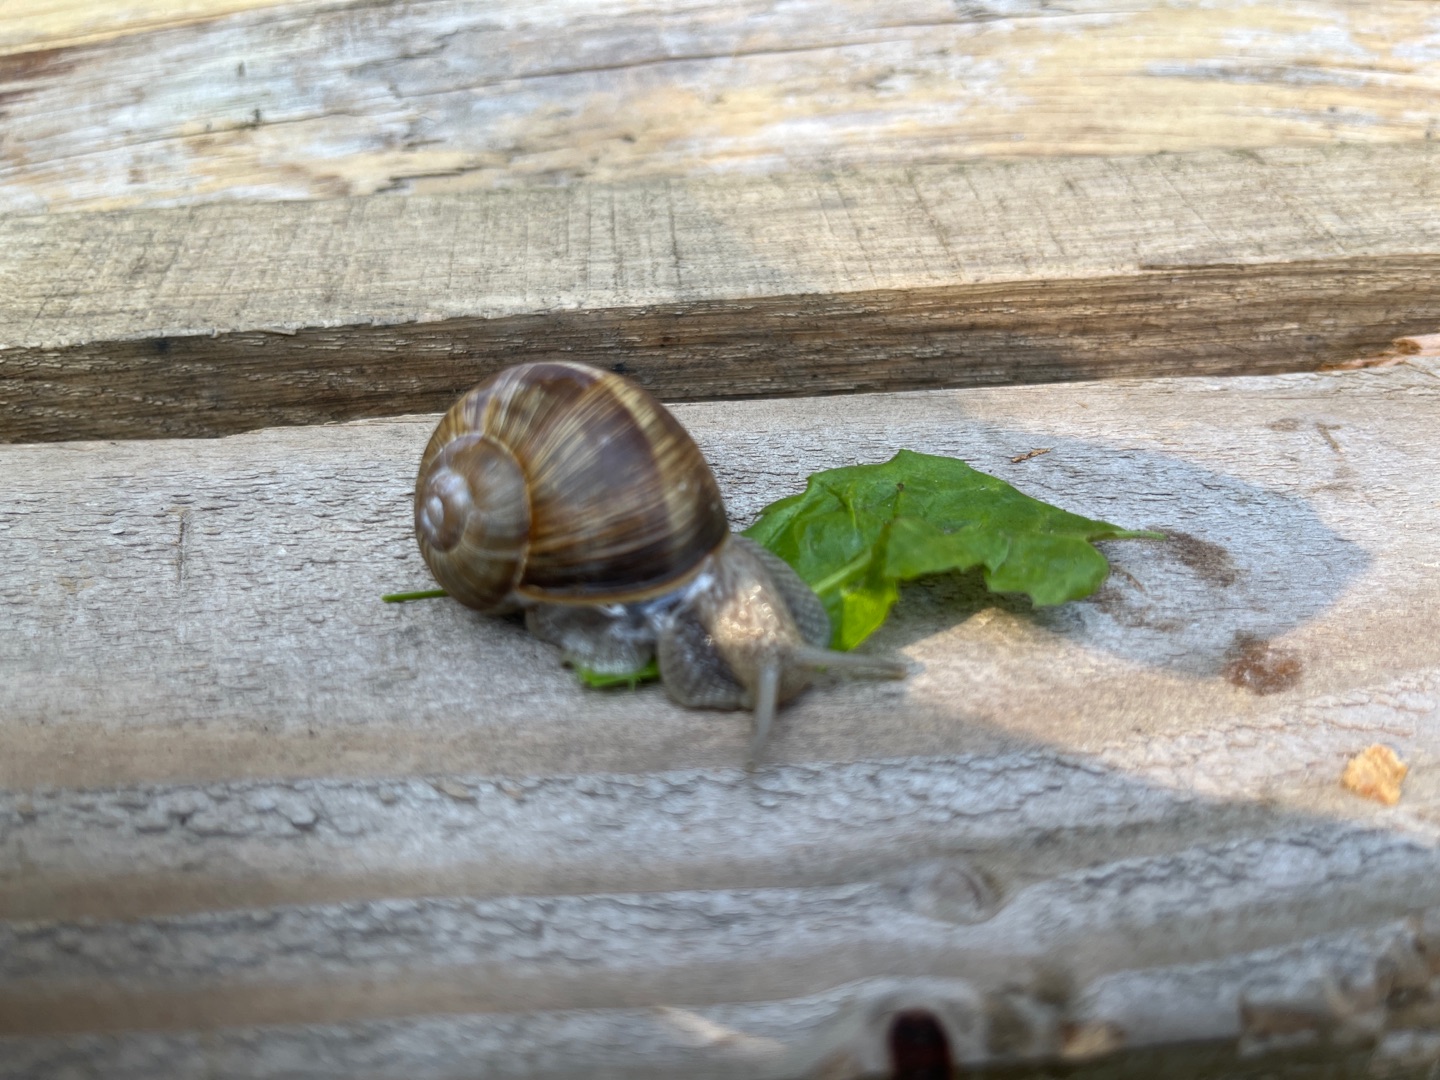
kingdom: Animalia
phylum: Mollusca
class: Gastropoda
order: Stylommatophora
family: Helicidae
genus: Helix
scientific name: Helix pomatia
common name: Vinbjergsnegl
